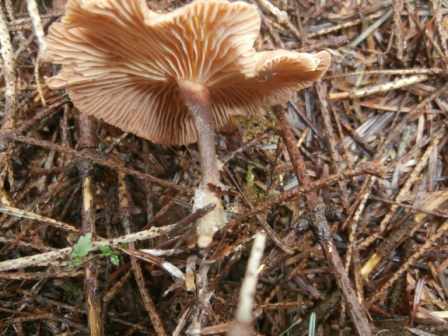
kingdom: Fungi
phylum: Basidiomycota
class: Agaricomycetes
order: Agaricales
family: Omphalotaceae
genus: Collybiopsis
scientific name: Collybiopsis peronata
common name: bestøvlet fladhat
